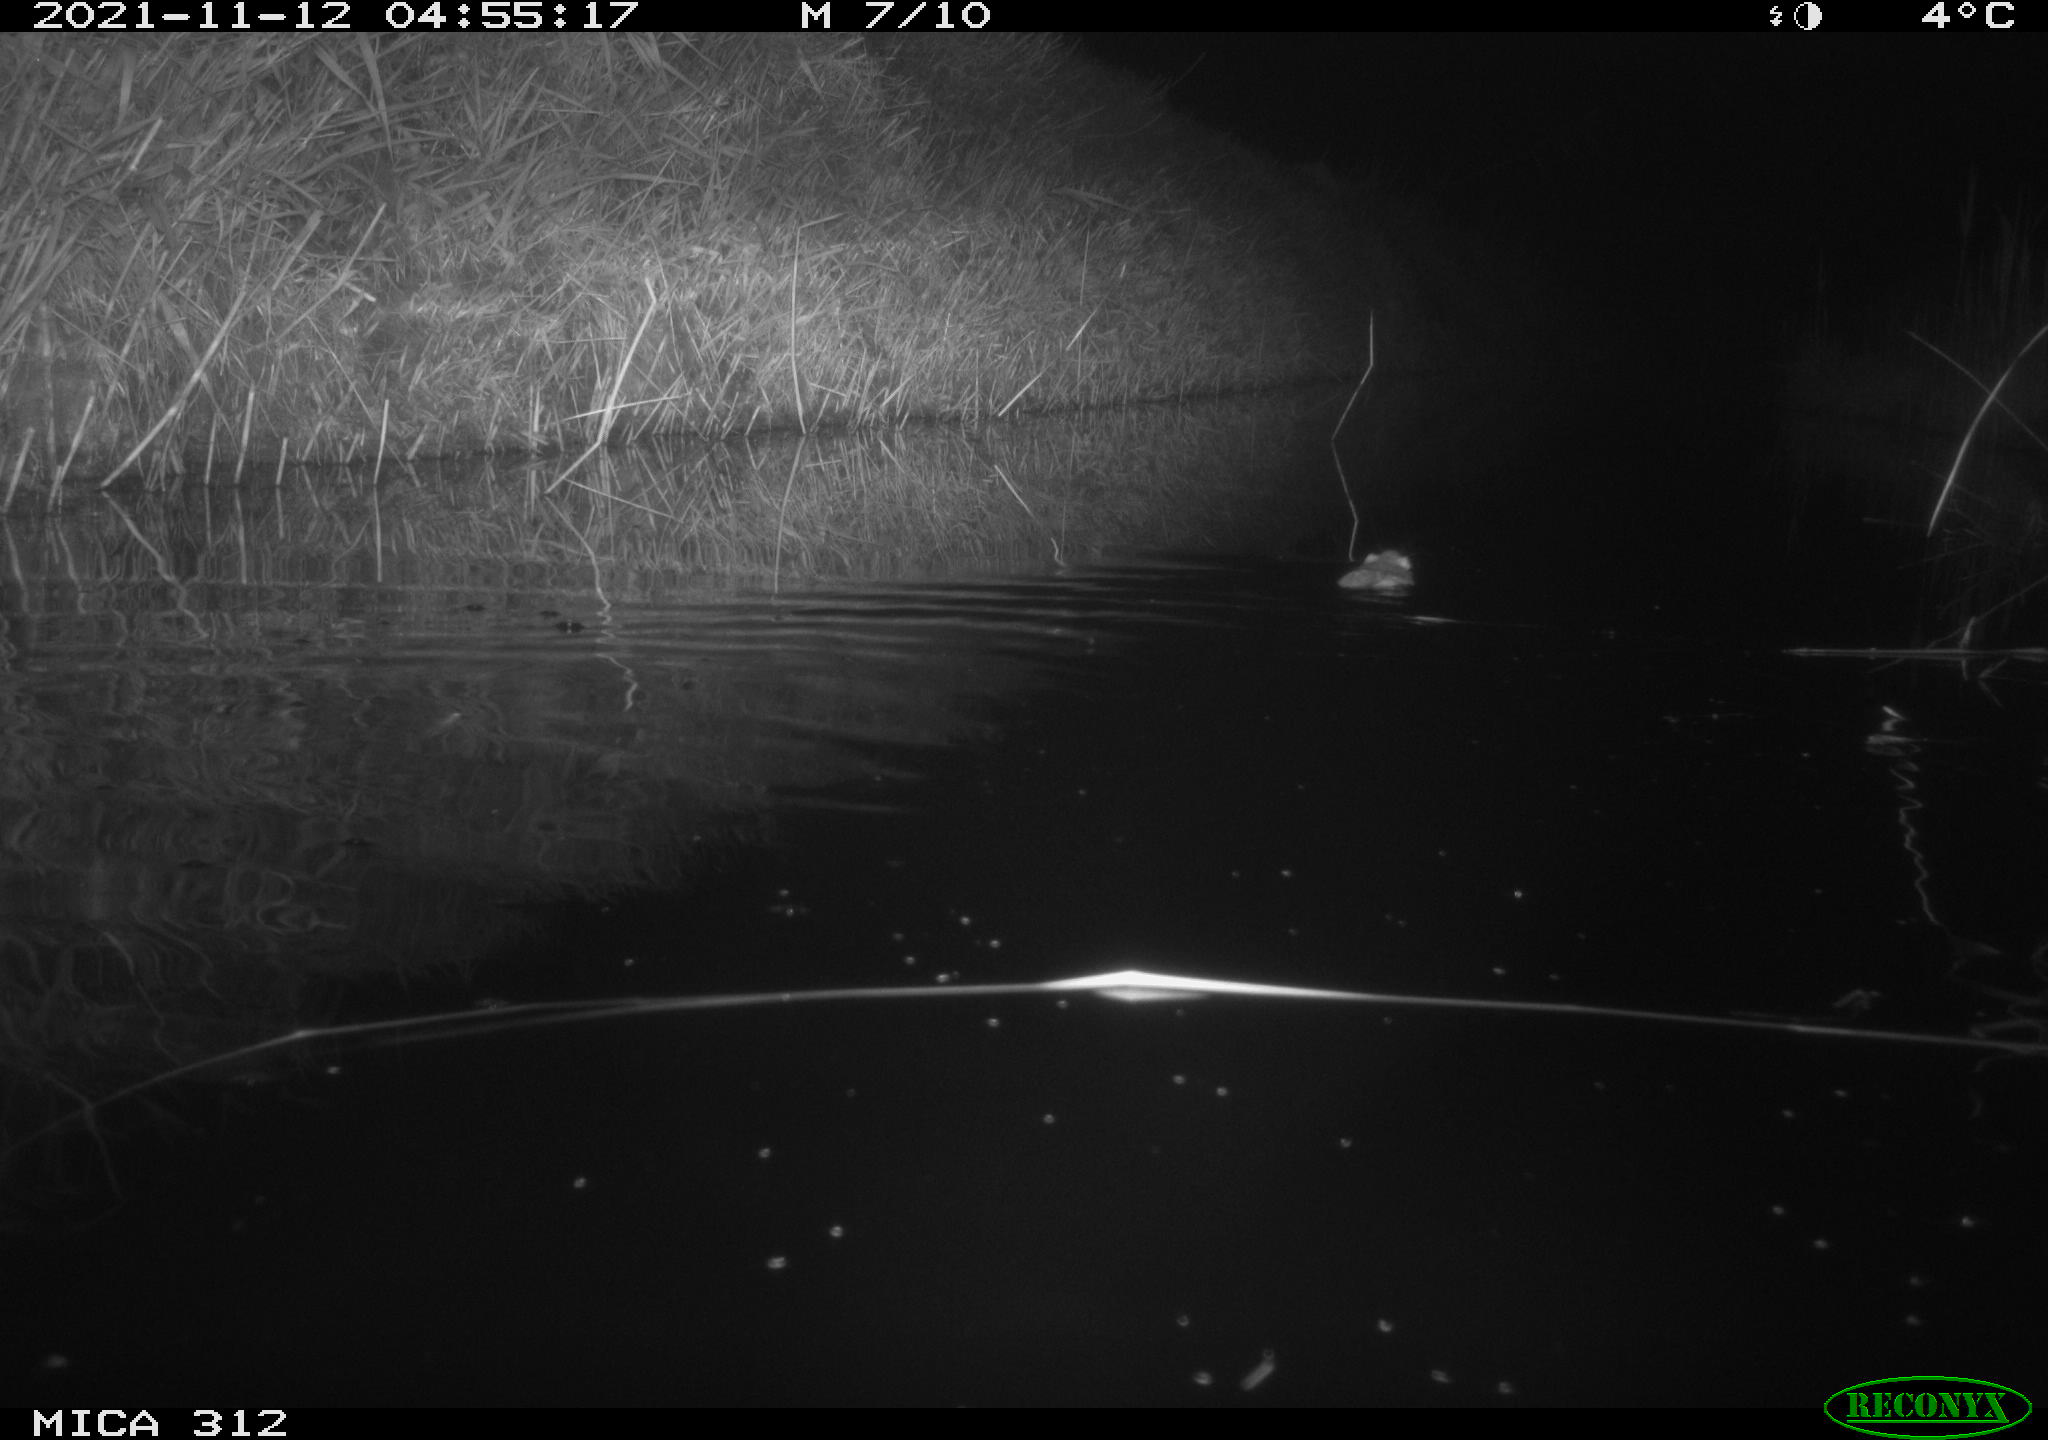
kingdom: Animalia
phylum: Chordata
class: Mammalia
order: Rodentia
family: Cricetidae
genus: Ondatra
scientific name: Ondatra zibethicus
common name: Muskrat
